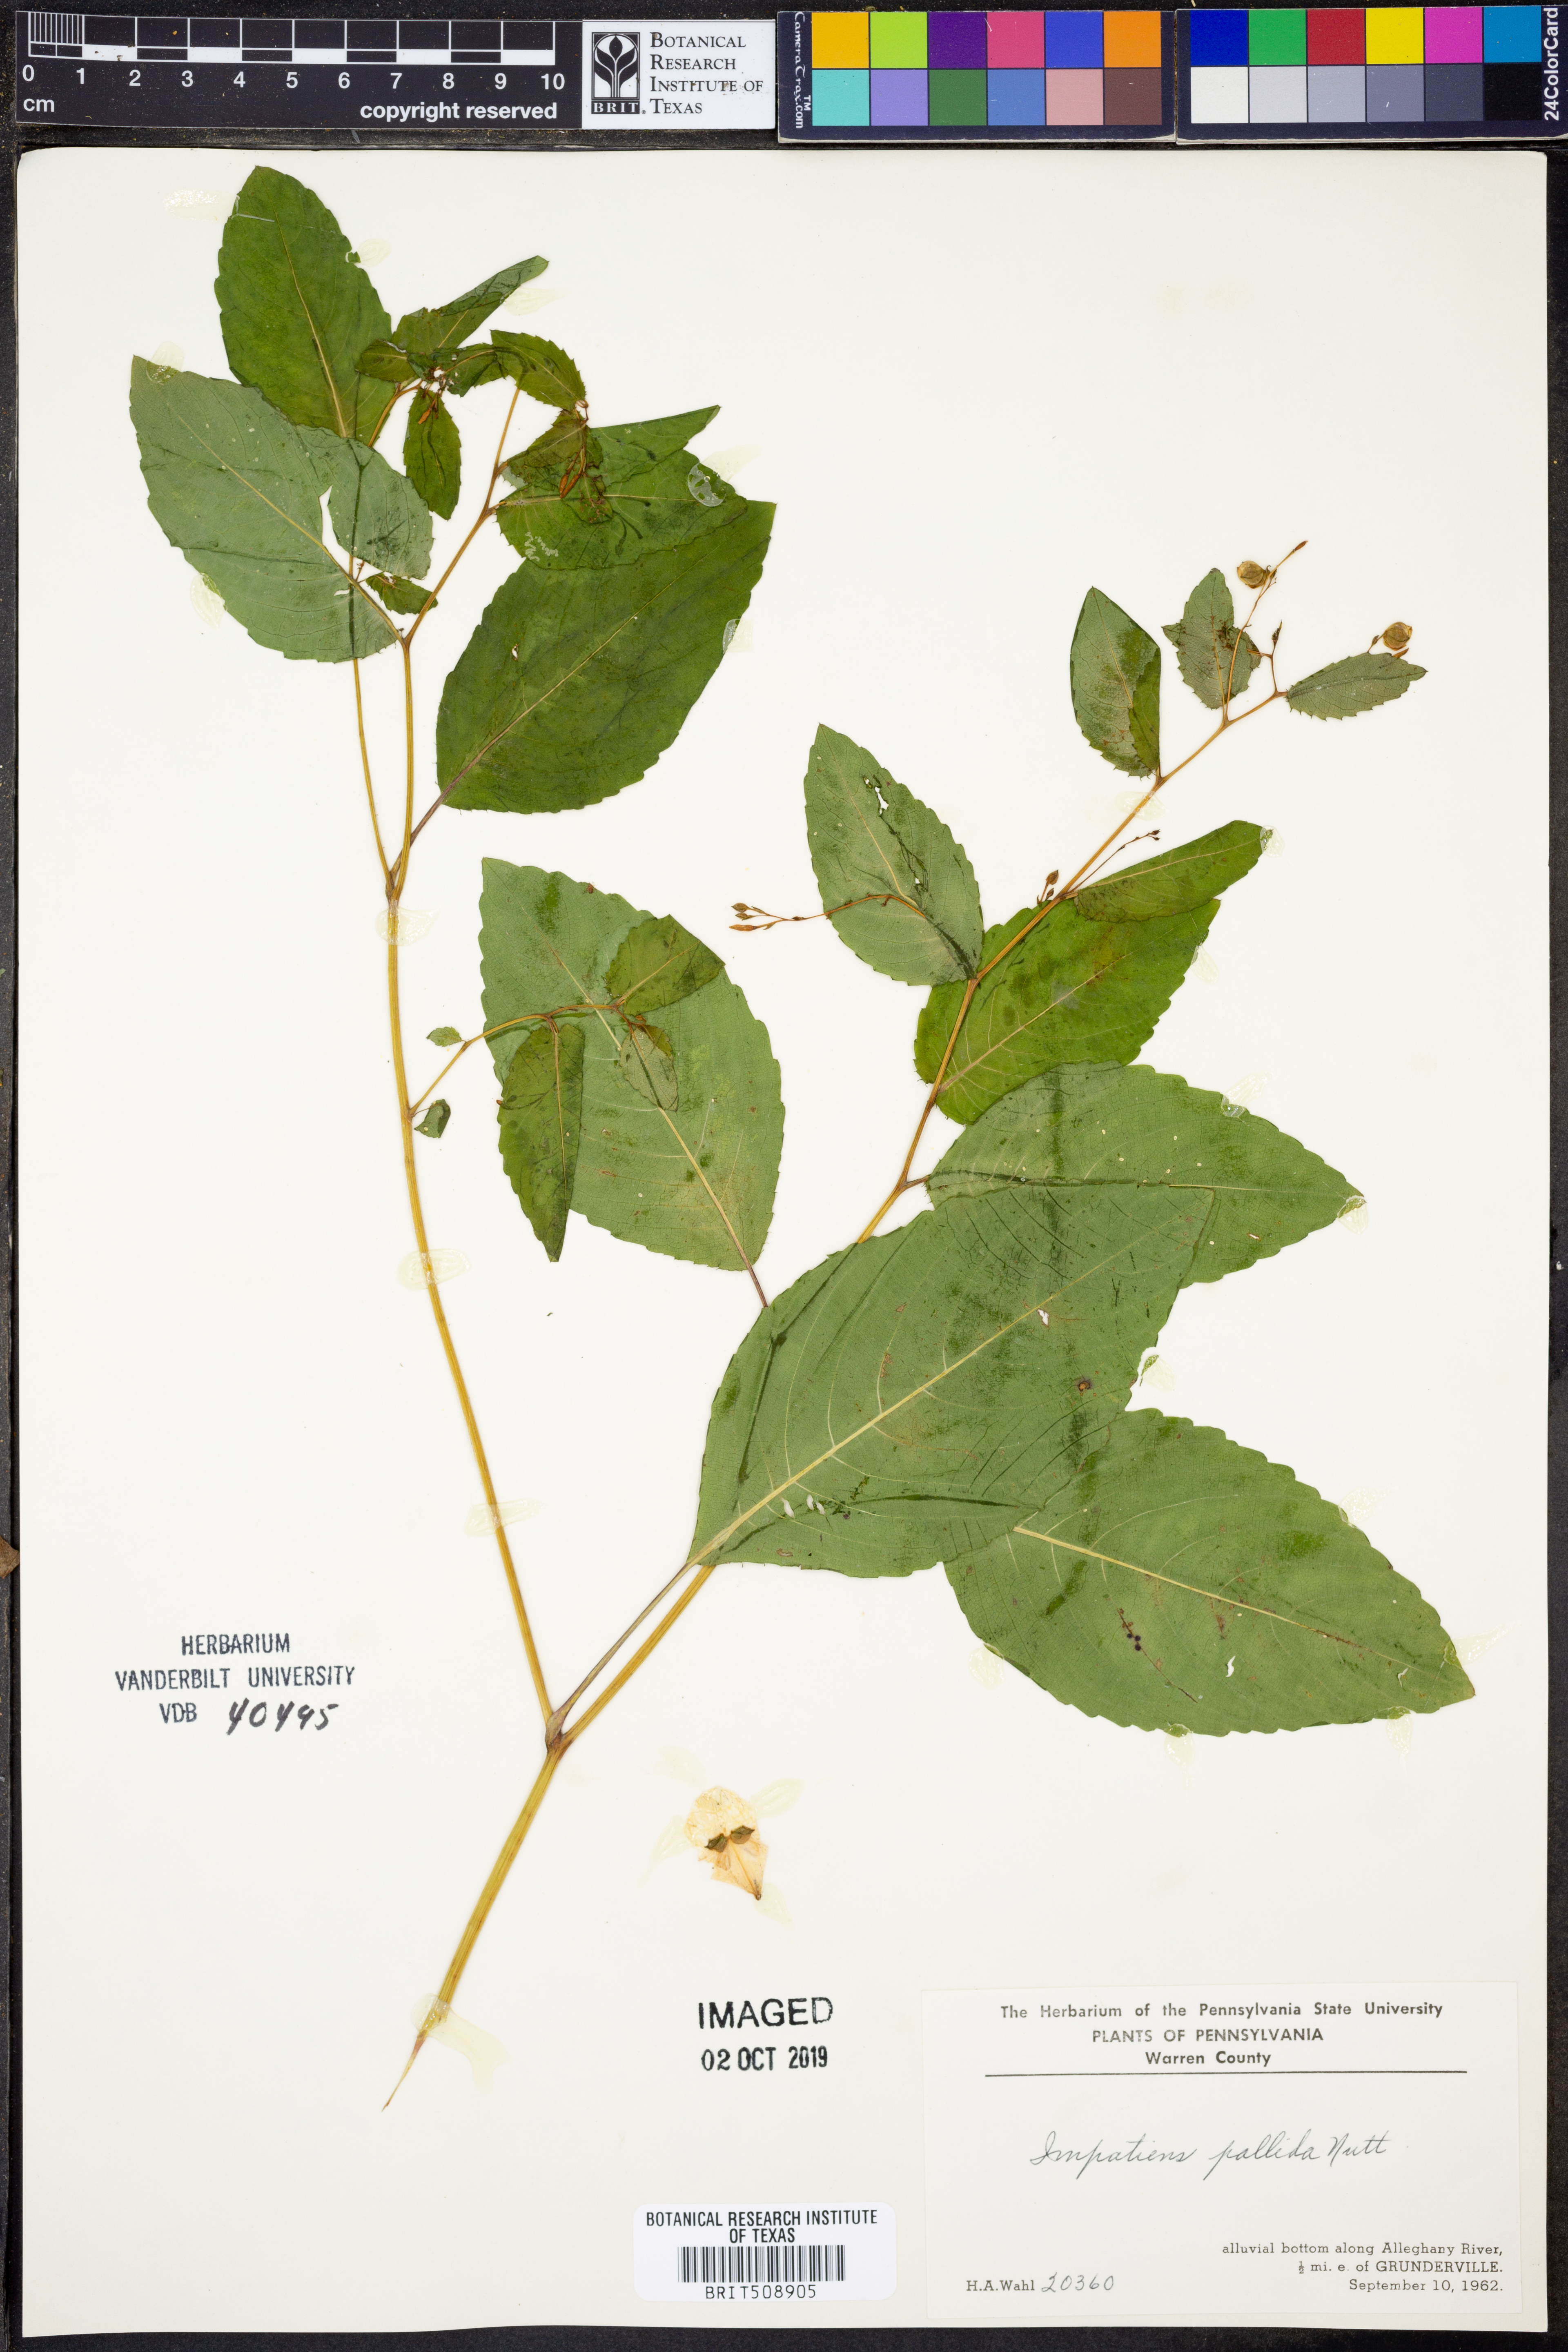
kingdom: Plantae
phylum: Tracheophyta
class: Magnoliopsida
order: Ericales
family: Balsaminaceae
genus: Impatiens
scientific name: Impatiens pallida
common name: Pale snapweed
